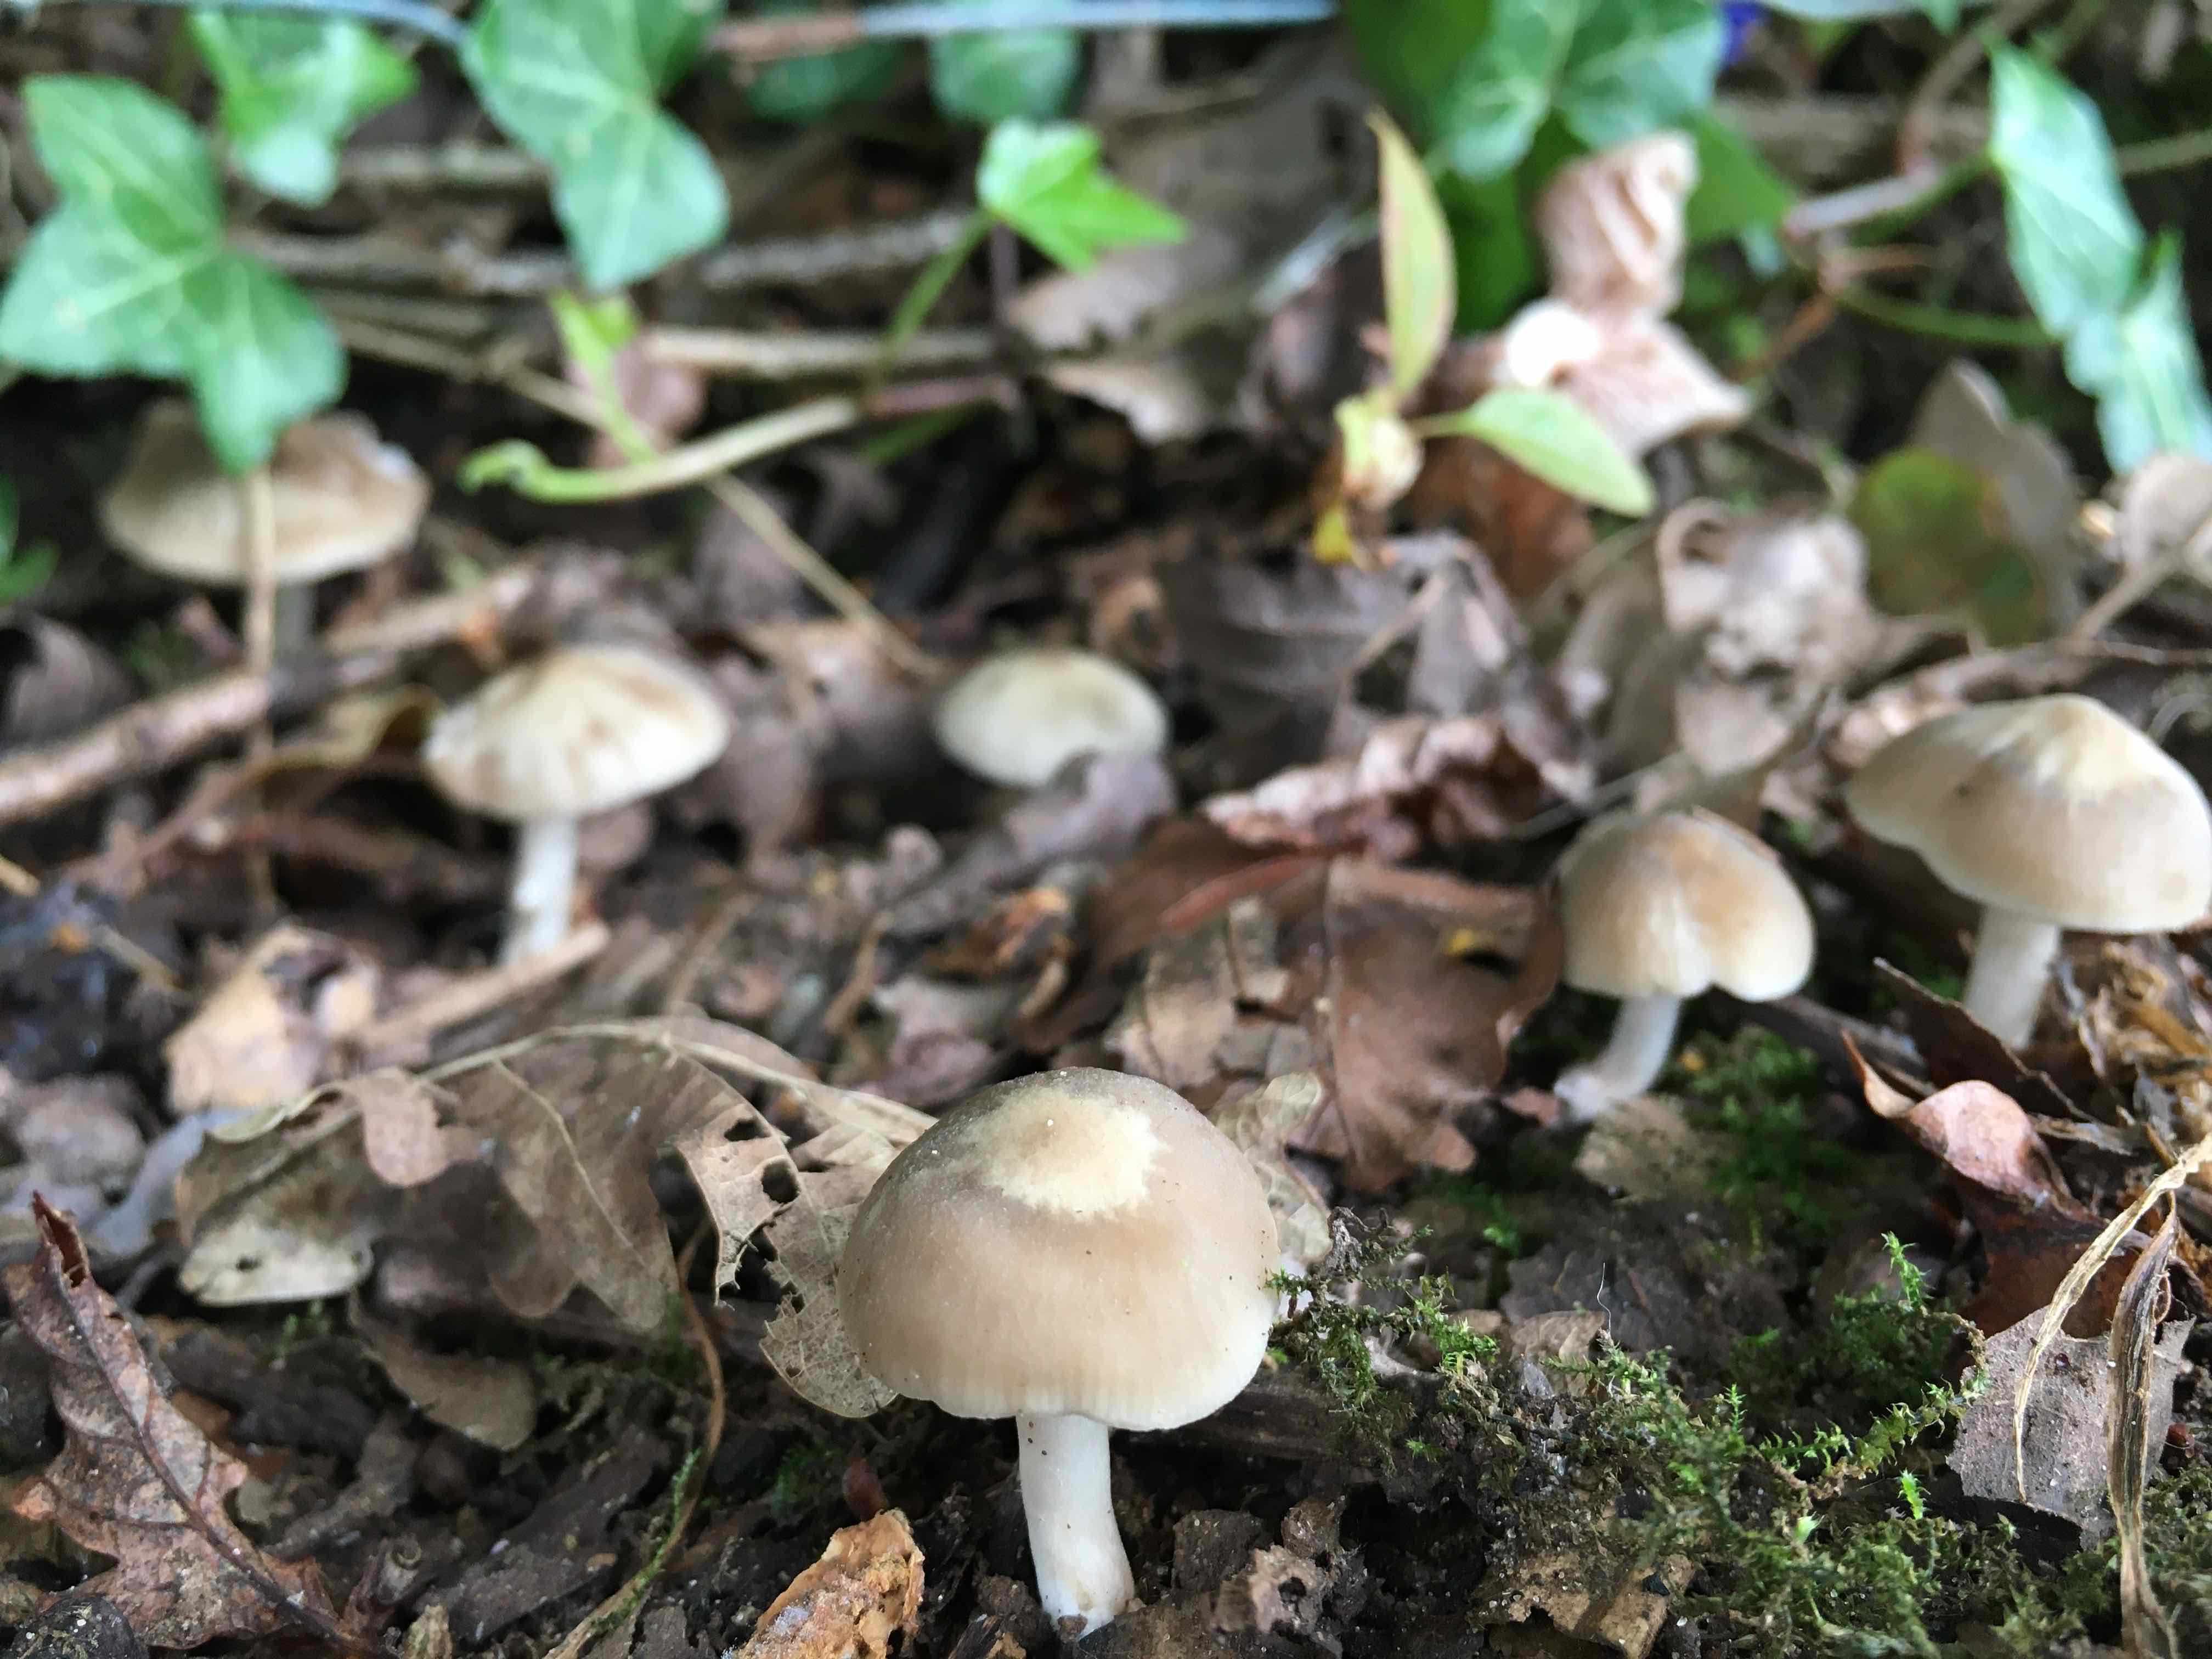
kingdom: Fungi
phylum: Basidiomycota
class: Agaricomycetes
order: Agaricales
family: Psathyrellaceae
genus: Psathyrella
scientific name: Psathyrella
